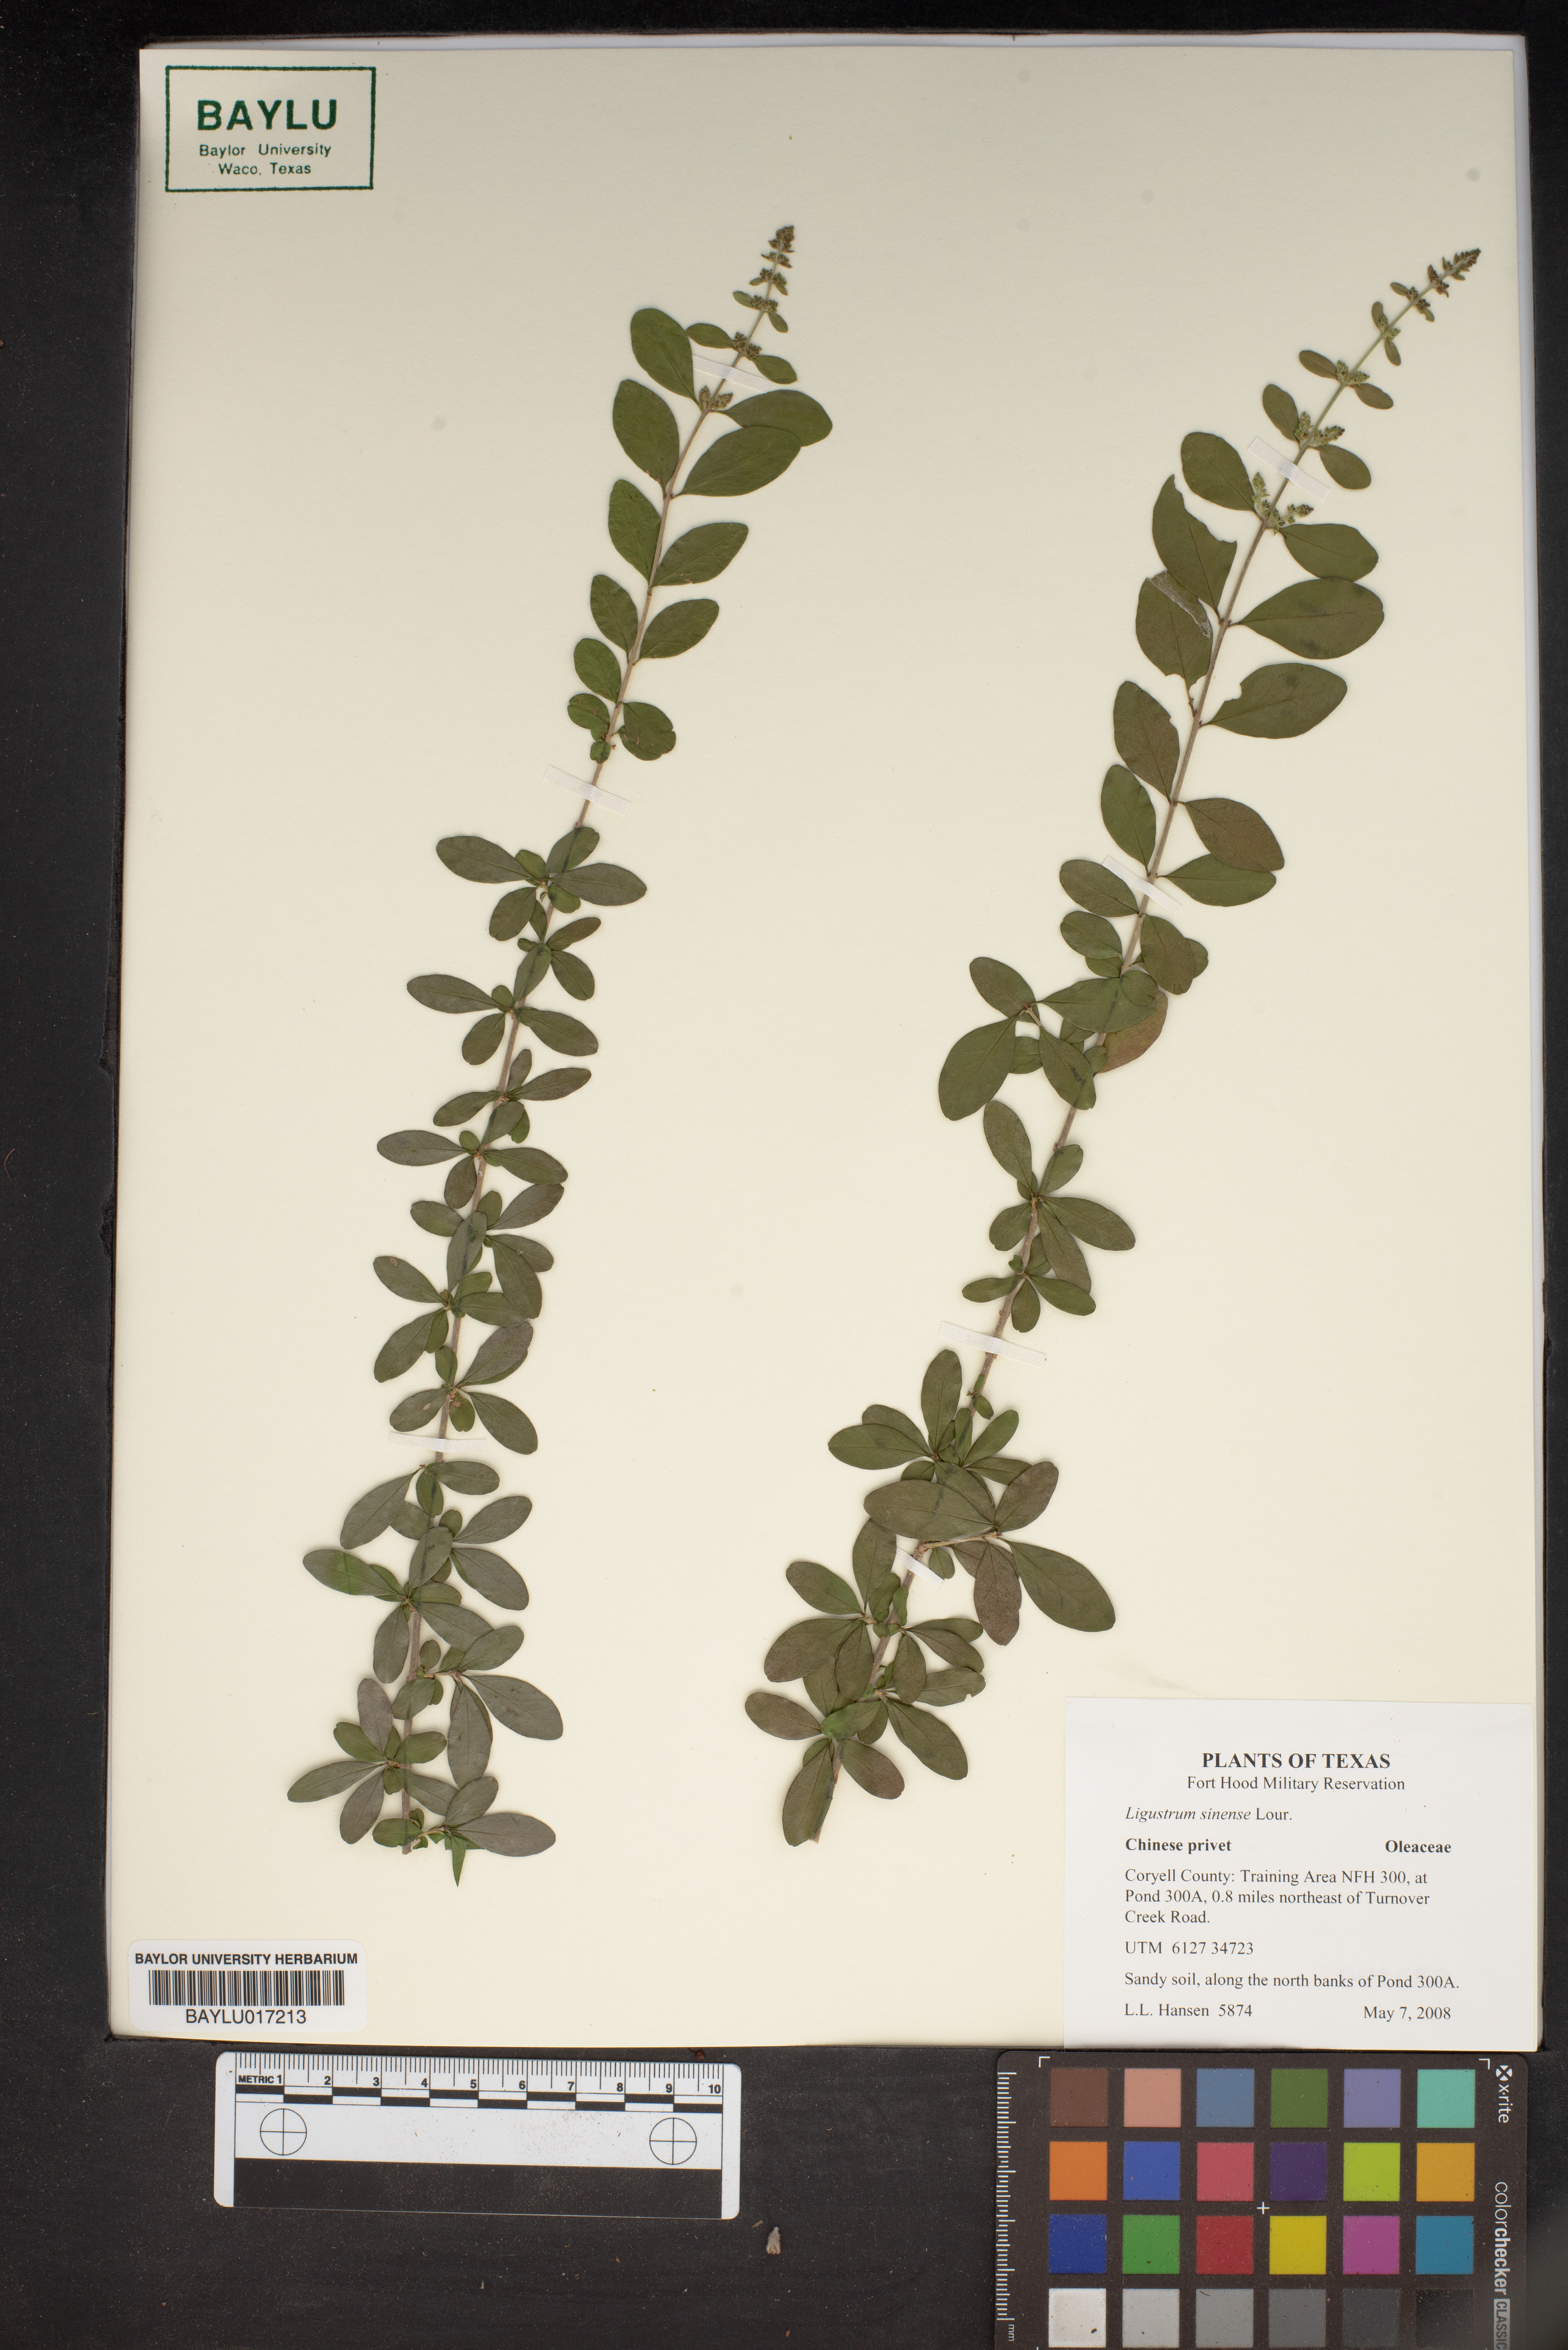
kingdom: Plantae
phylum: Tracheophyta
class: Magnoliopsida
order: Lamiales
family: Oleaceae
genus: Ligustrum
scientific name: Ligustrum sinense
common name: Chinese privet
